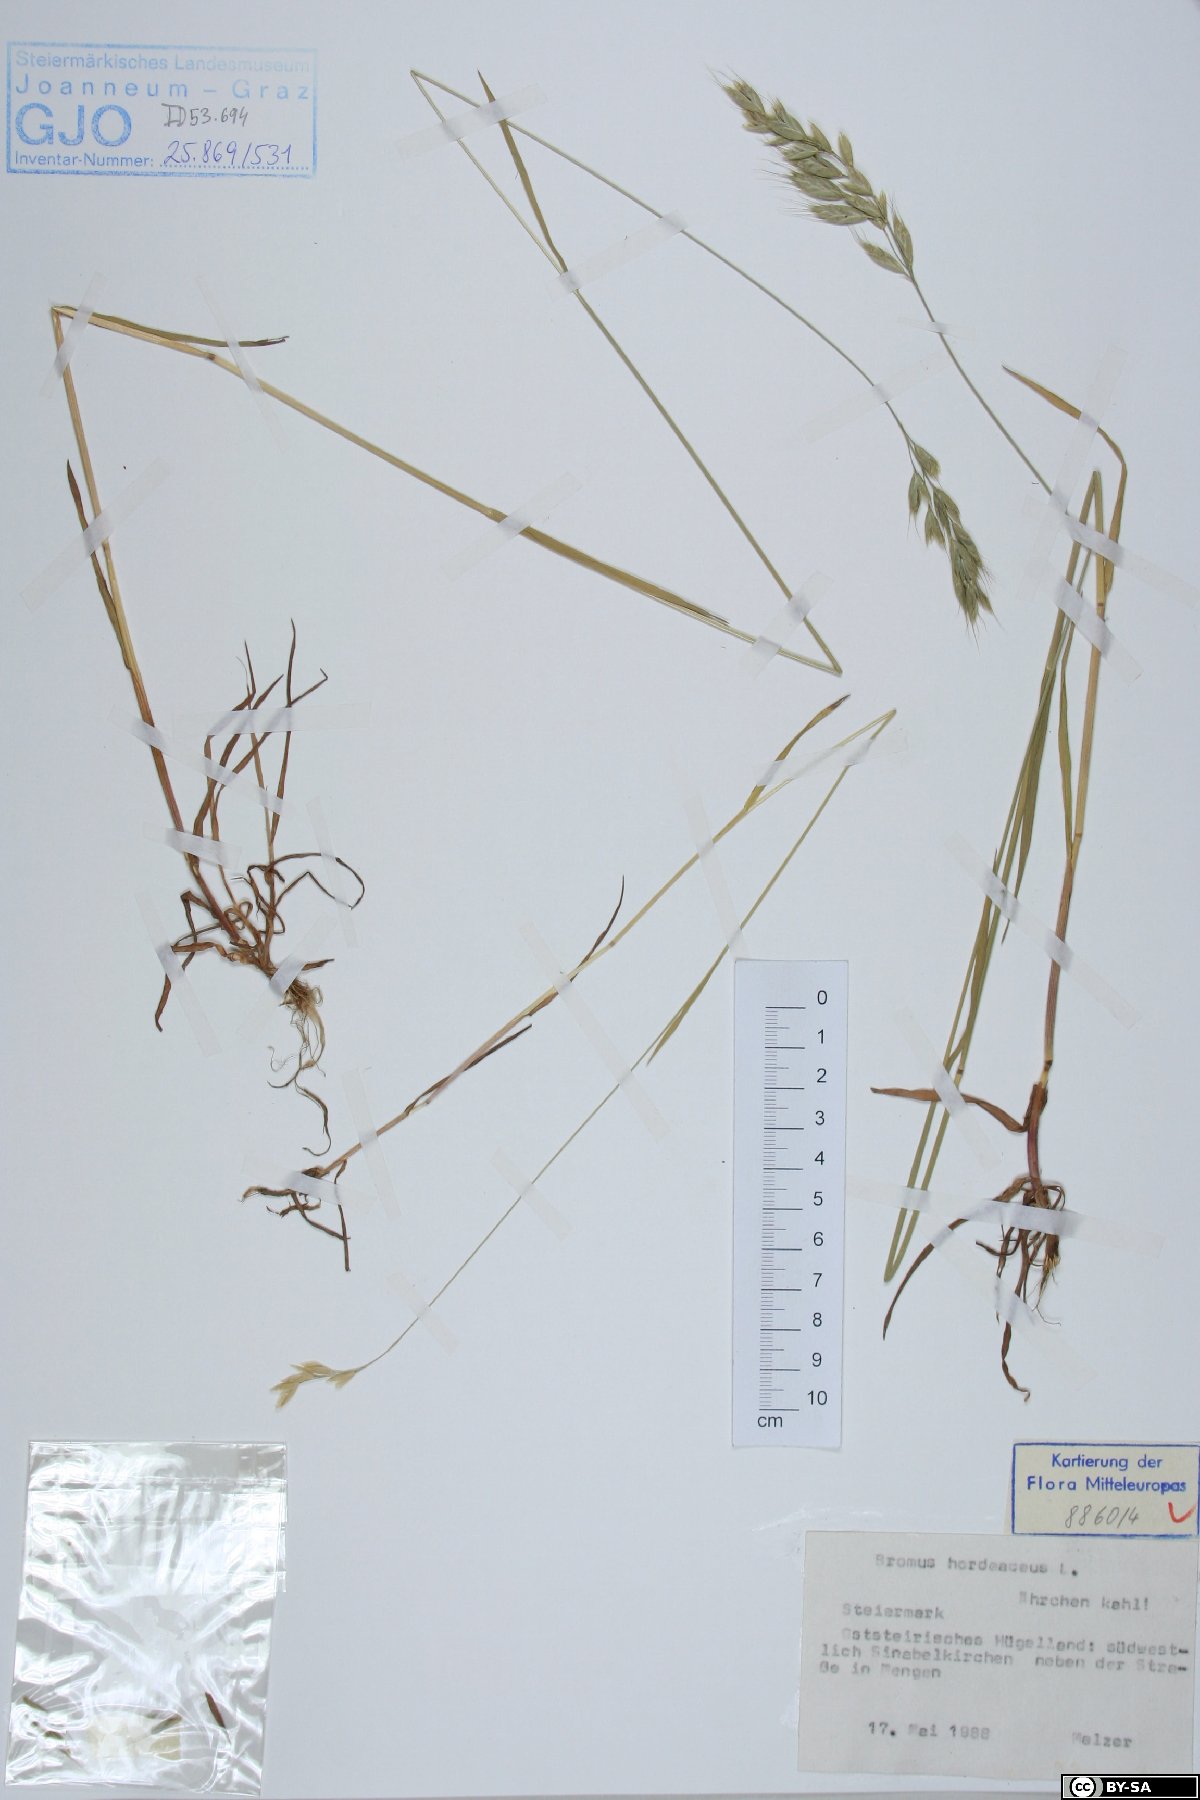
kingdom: Plantae
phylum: Tracheophyta
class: Liliopsida
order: Poales
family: Poaceae
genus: Bromus
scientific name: Bromus hordeaceus
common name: Soft brome
